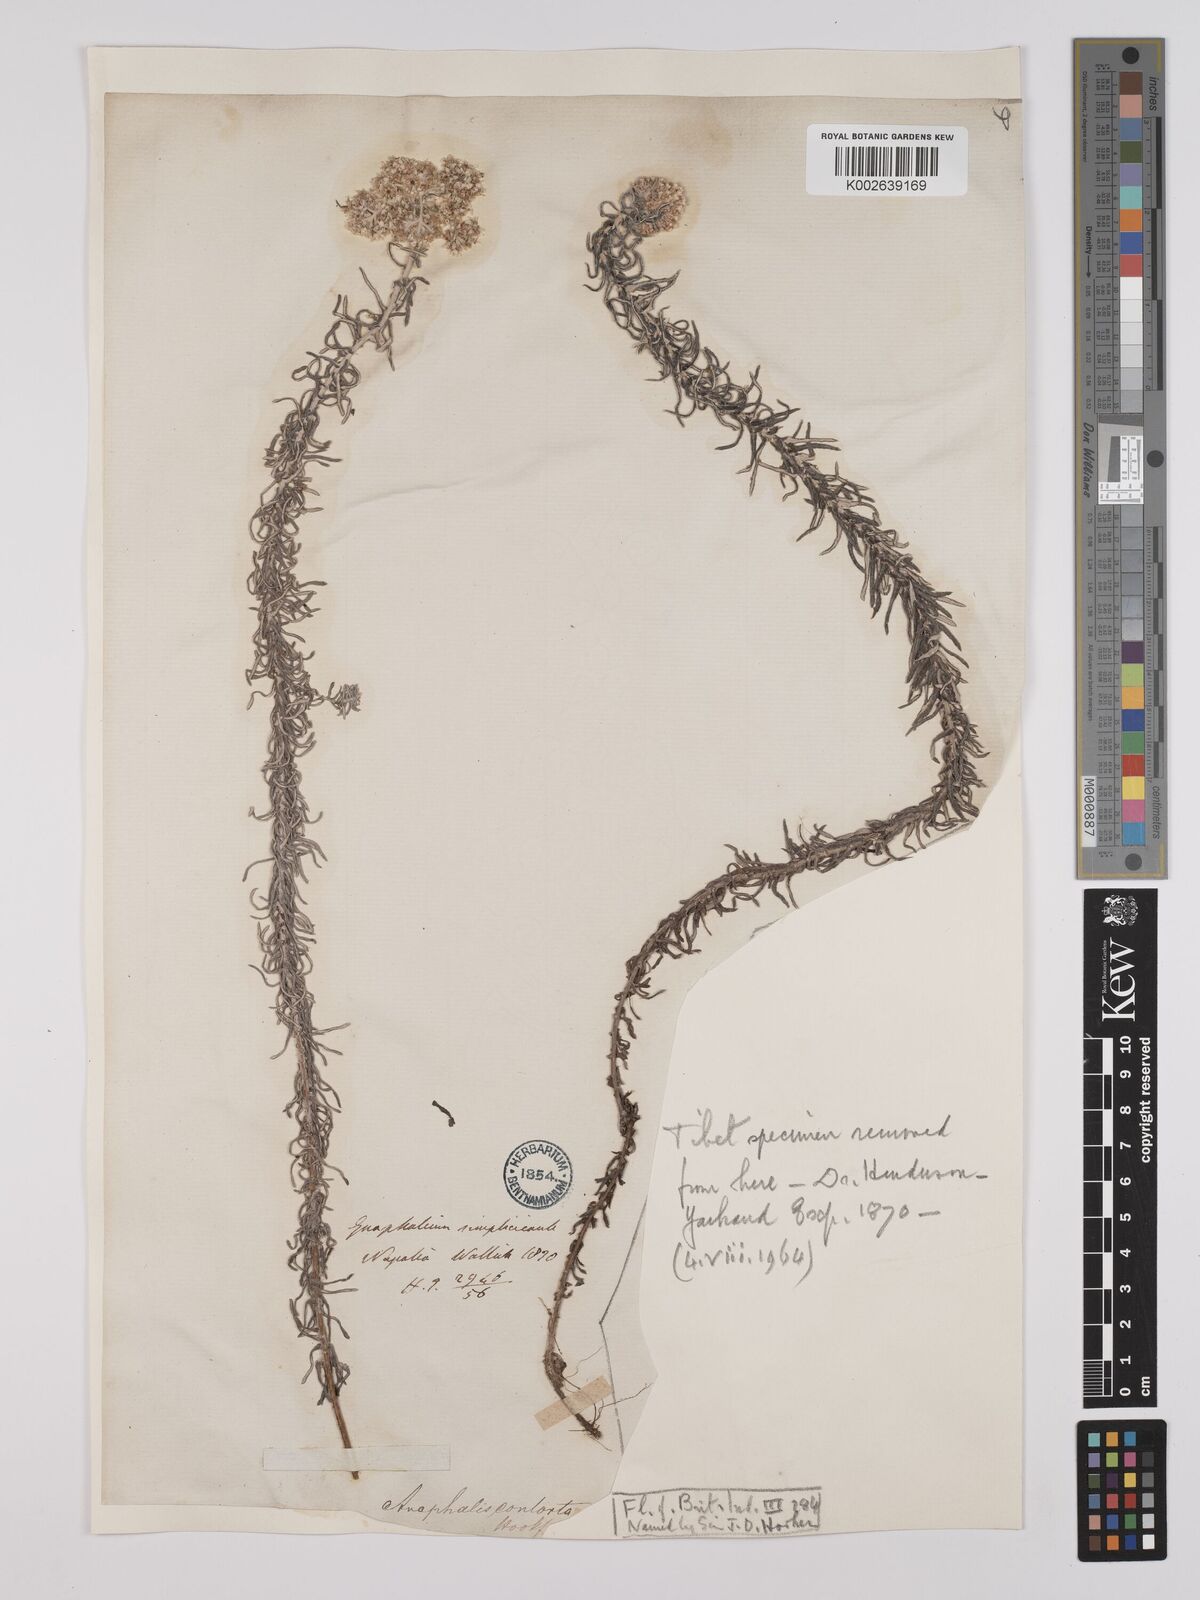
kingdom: Plantae
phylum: Tracheophyta
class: Magnoliopsida
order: Asterales
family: Asteraceae
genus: Anaphalis
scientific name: Anaphalis contorta
